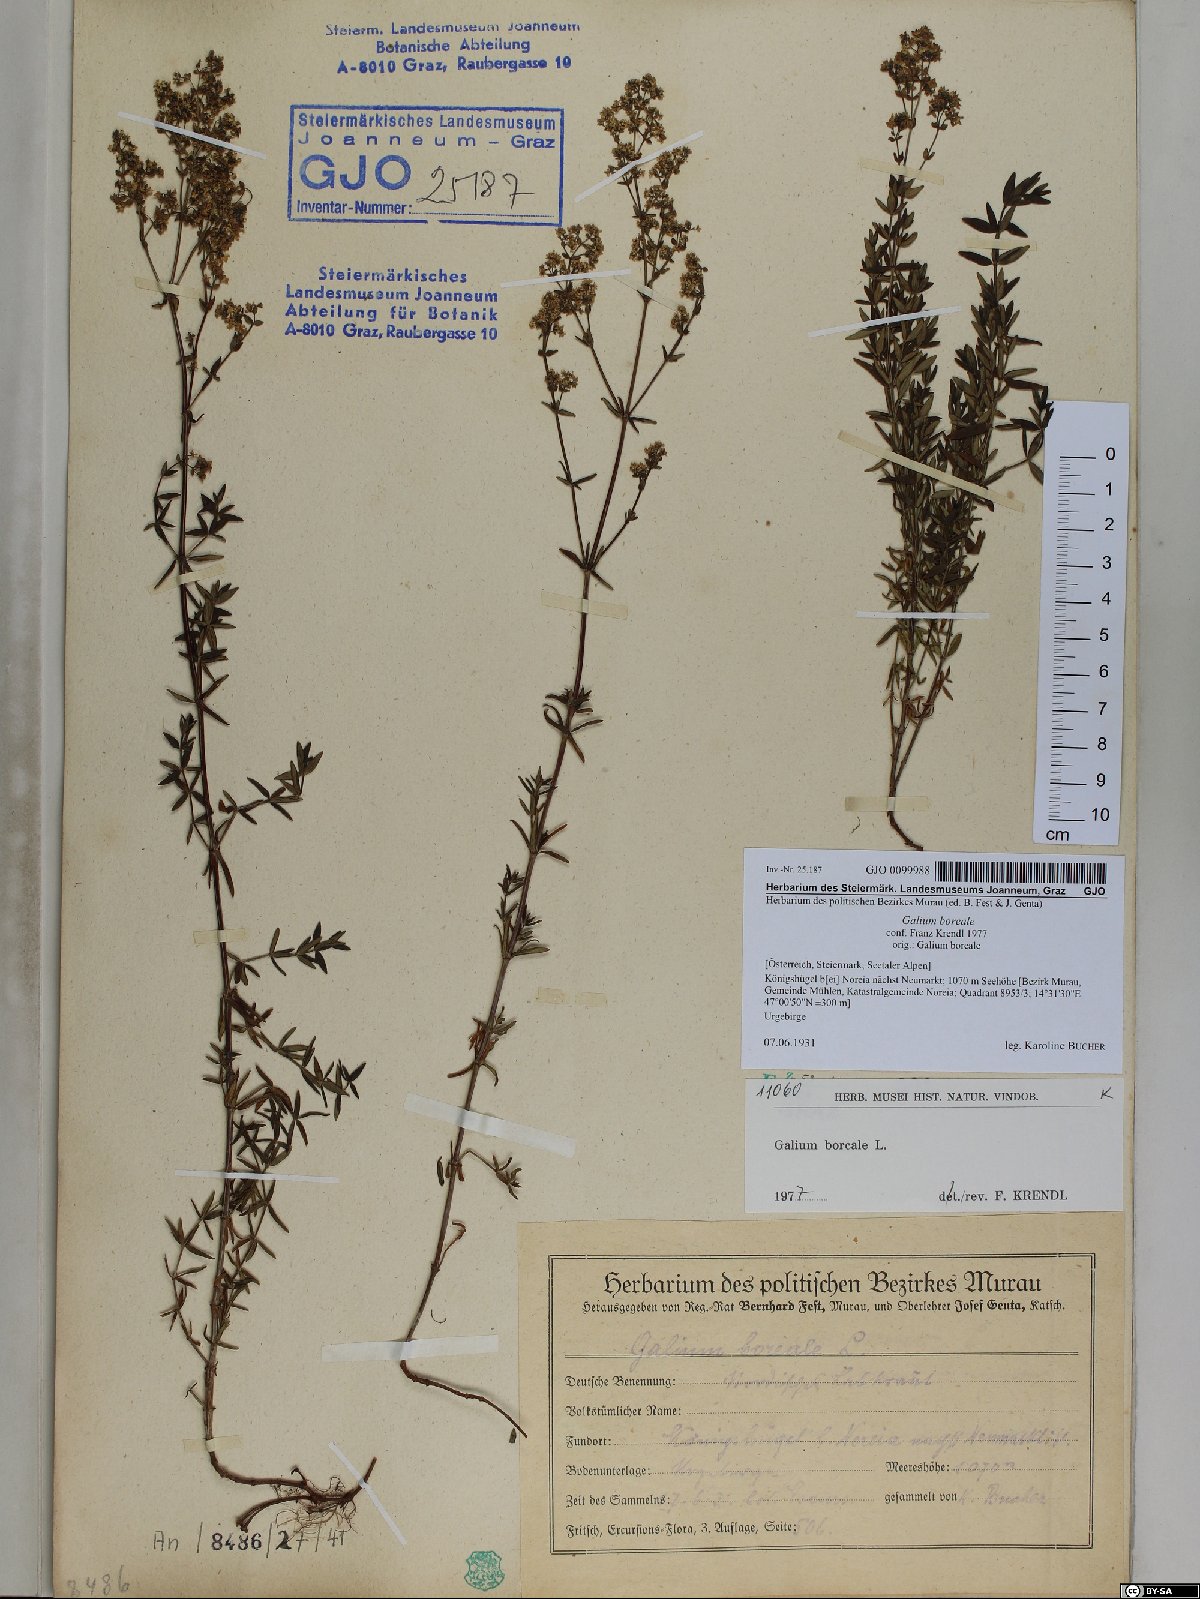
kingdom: Plantae
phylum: Tracheophyta
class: Magnoliopsida
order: Gentianales
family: Rubiaceae
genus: Galium
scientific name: Galium boreale
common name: Northern bedstraw
